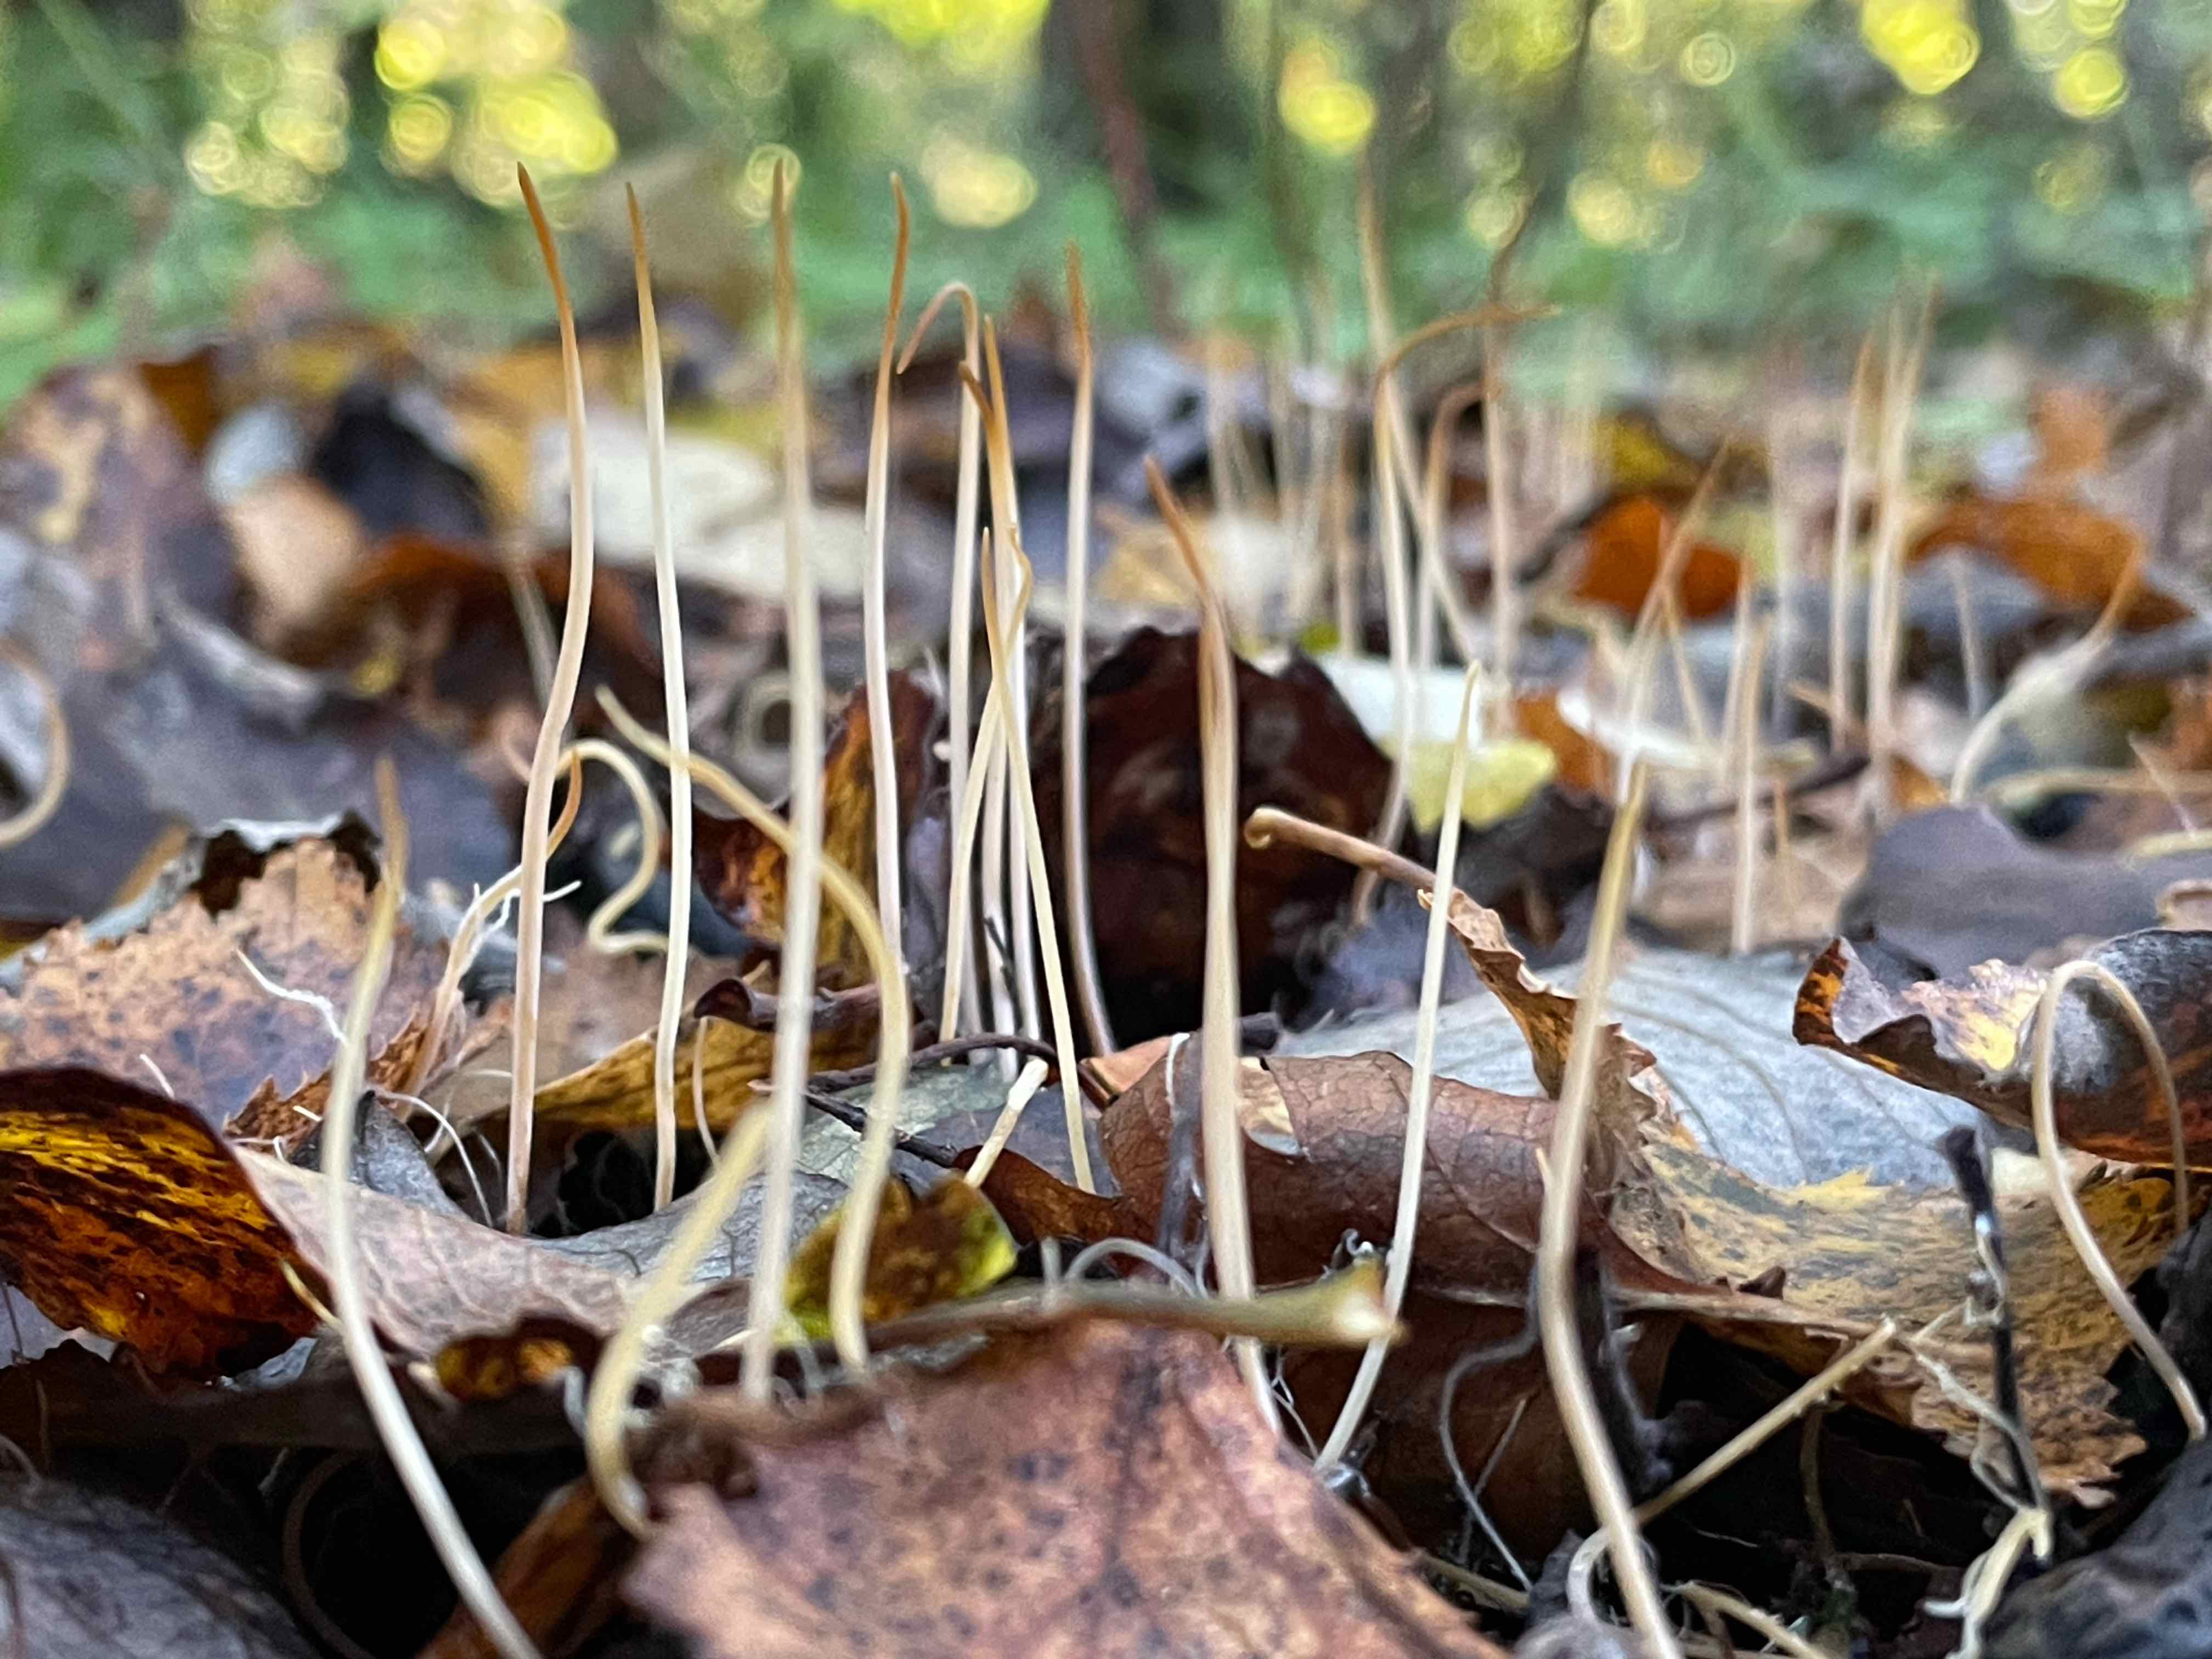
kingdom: Fungi
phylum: Basidiomycota
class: Agaricomycetes
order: Agaricales
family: Typhulaceae
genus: Typhula
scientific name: Typhula juncea
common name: trådagtig rørkølle
